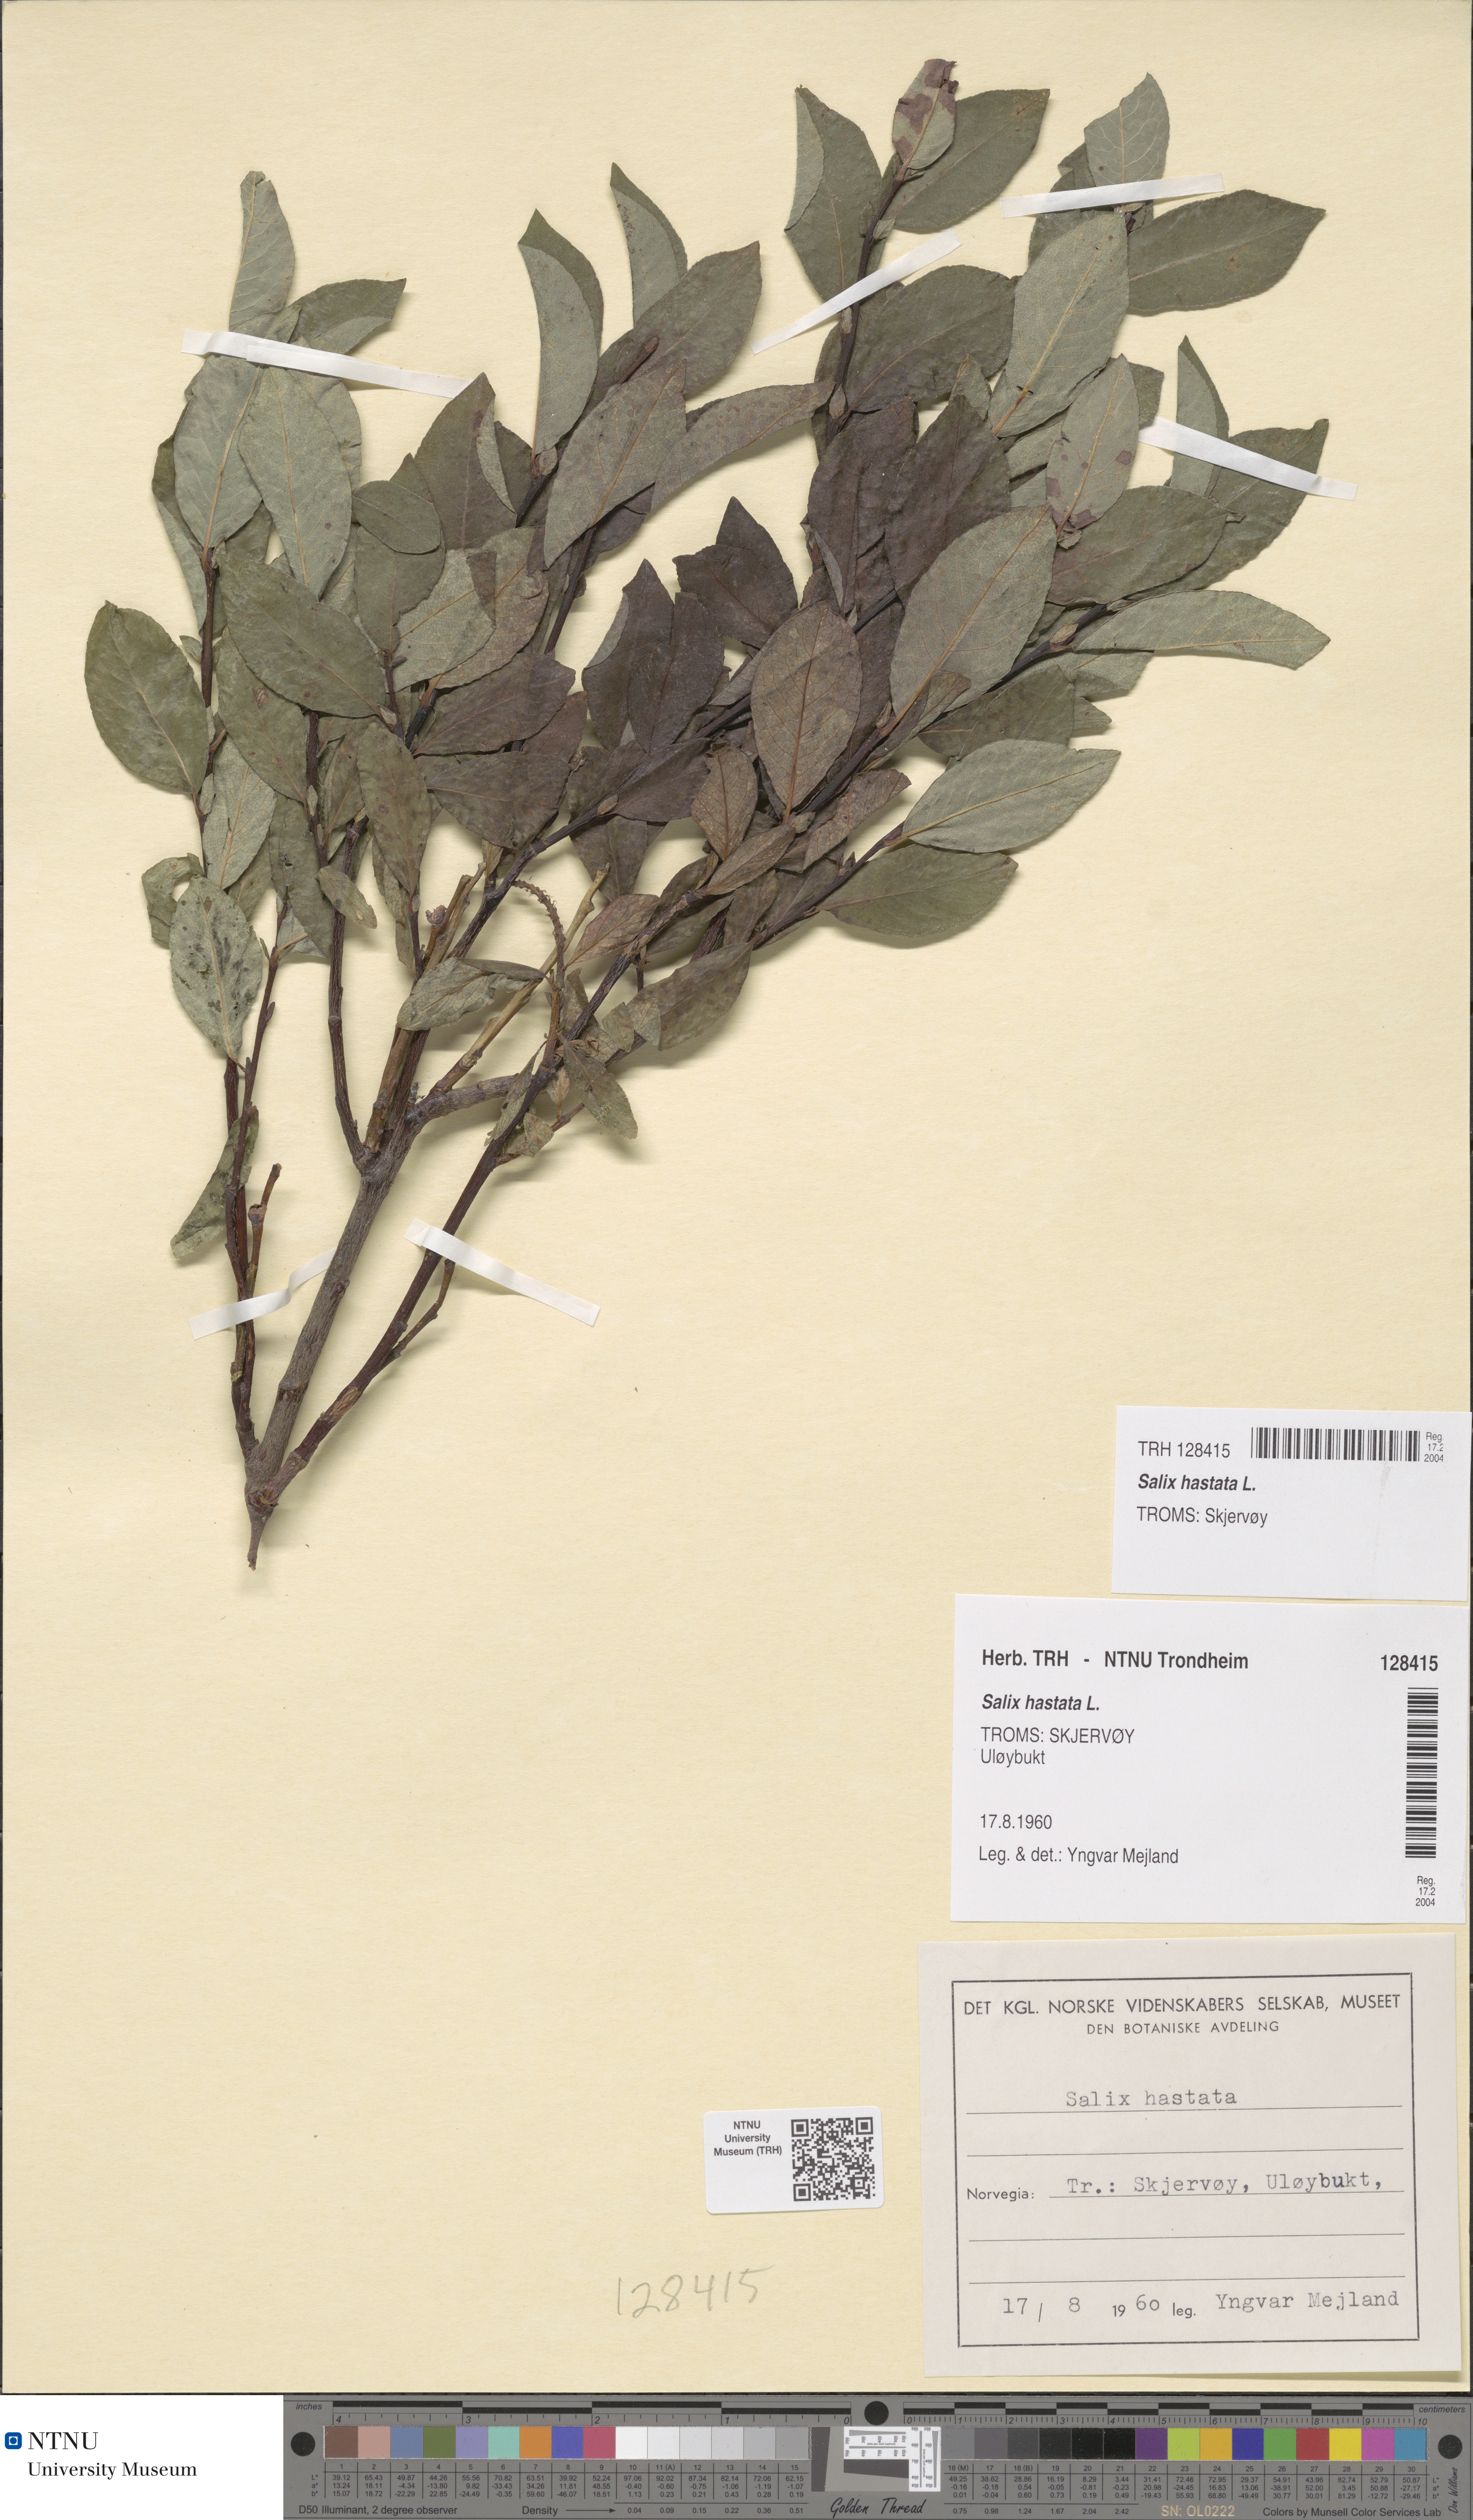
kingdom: Plantae
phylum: Tracheophyta
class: Magnoliopsida
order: Malpighiales
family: Salicaceae
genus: Salix
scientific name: Salix hastata
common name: Halberd willow
